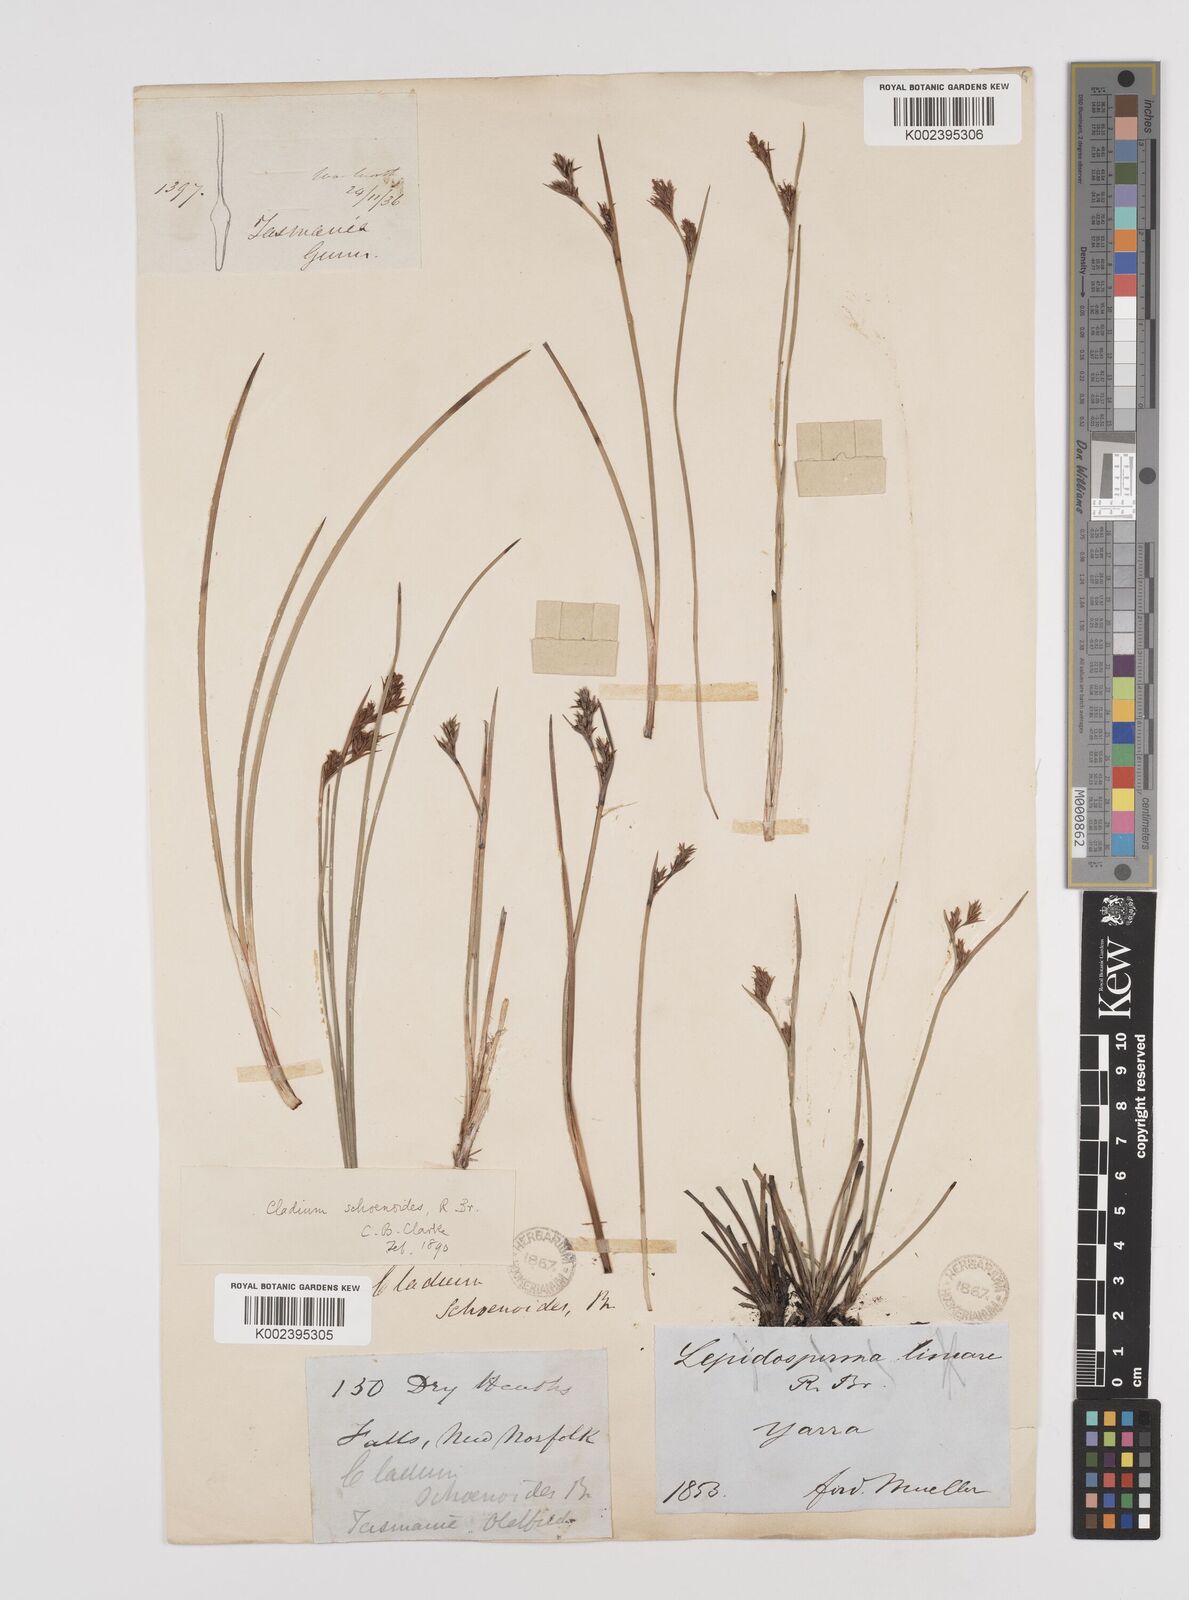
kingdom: Plantae
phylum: Tracheophyta
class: Liliopsida
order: Poales
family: Cyperaceae
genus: Machaerina
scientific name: Machaerina acuta
